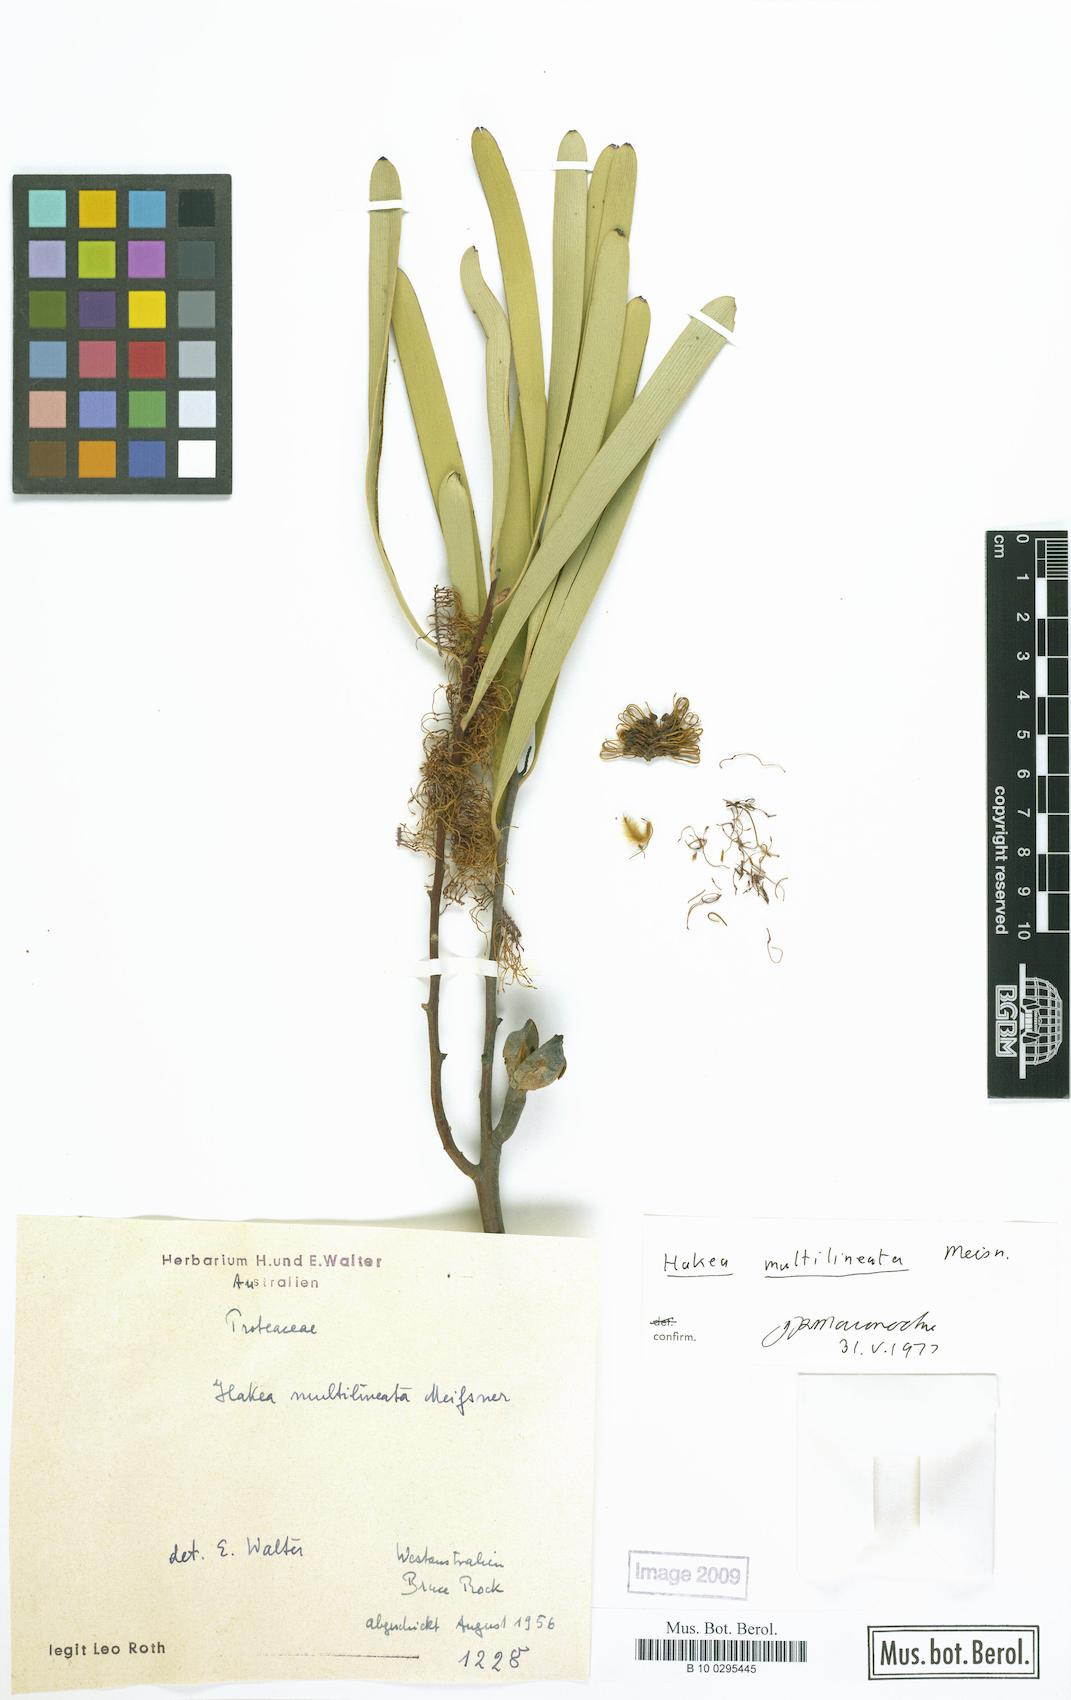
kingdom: Plantae
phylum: Tracheophyta
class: Magnoliopsida
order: Proteales
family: Proteaceae
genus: Hakea
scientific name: Hakea multilineata
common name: Grass-leaf hakea
